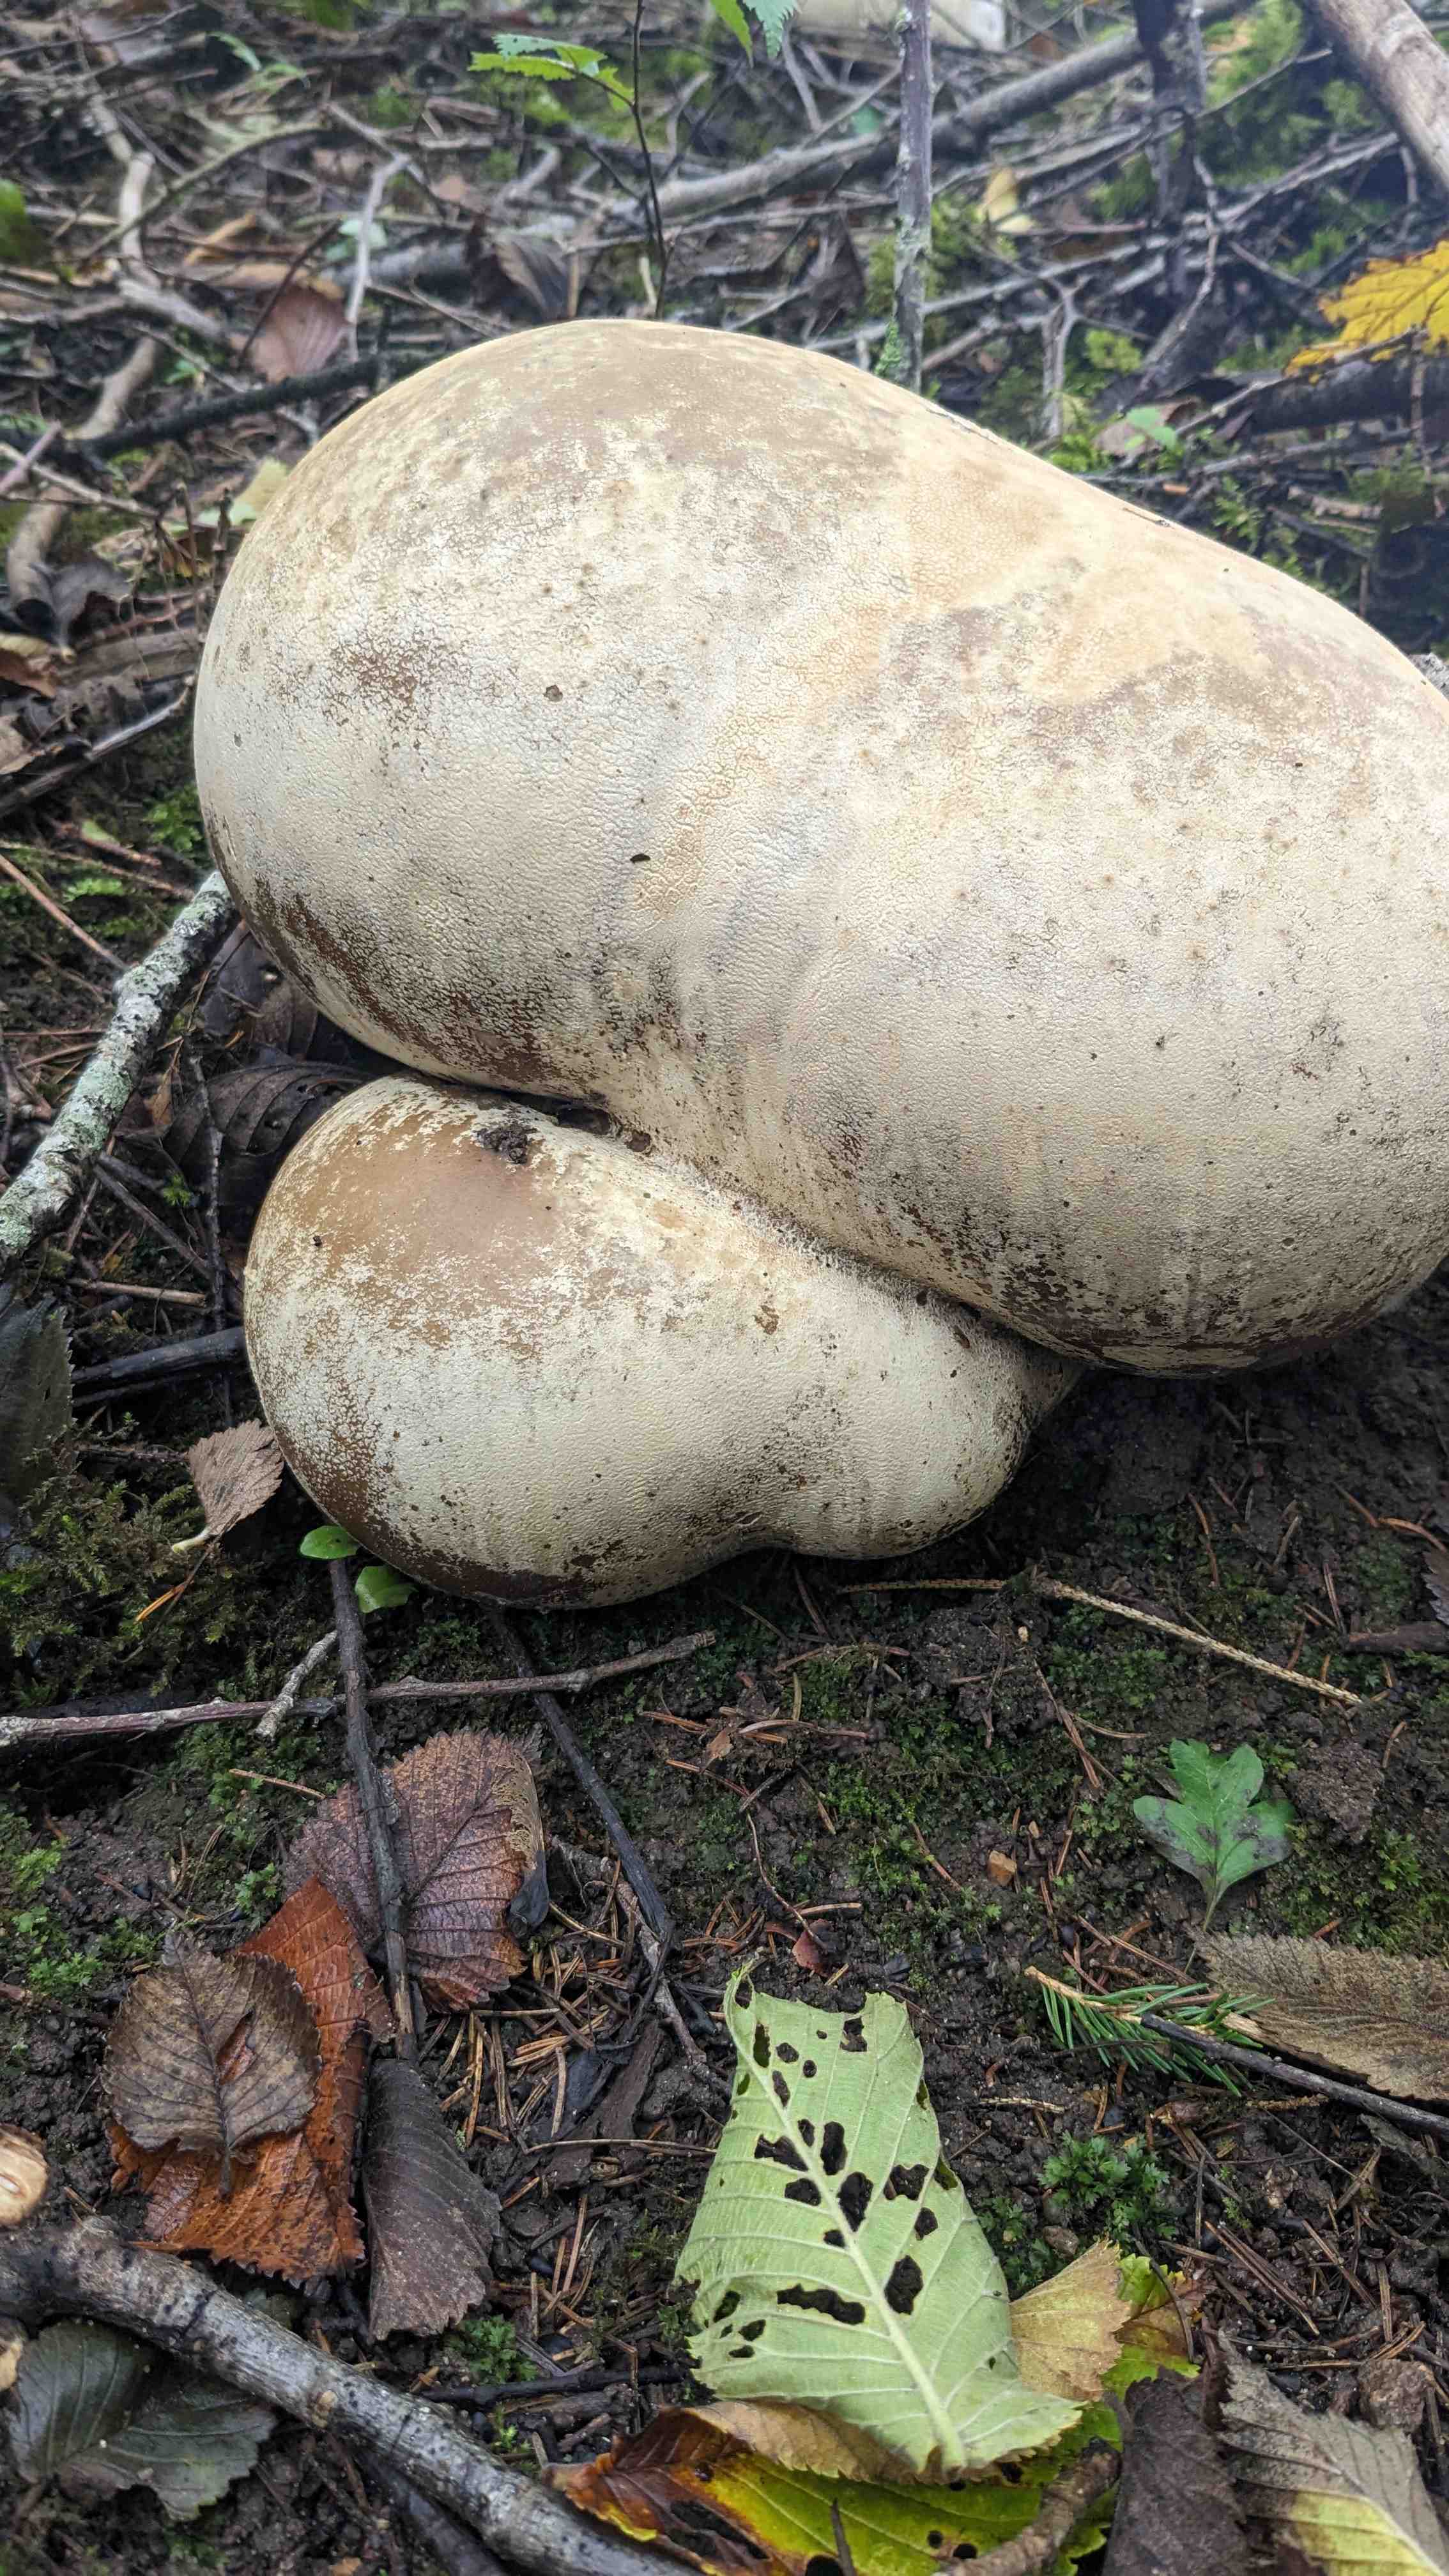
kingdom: Fungi
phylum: Basidiomycota
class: Agaricomycetes
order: Agaricales
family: Lycoperdaceae
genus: Calvatia
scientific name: Calvatia gigantea
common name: kæmpestøvbold
